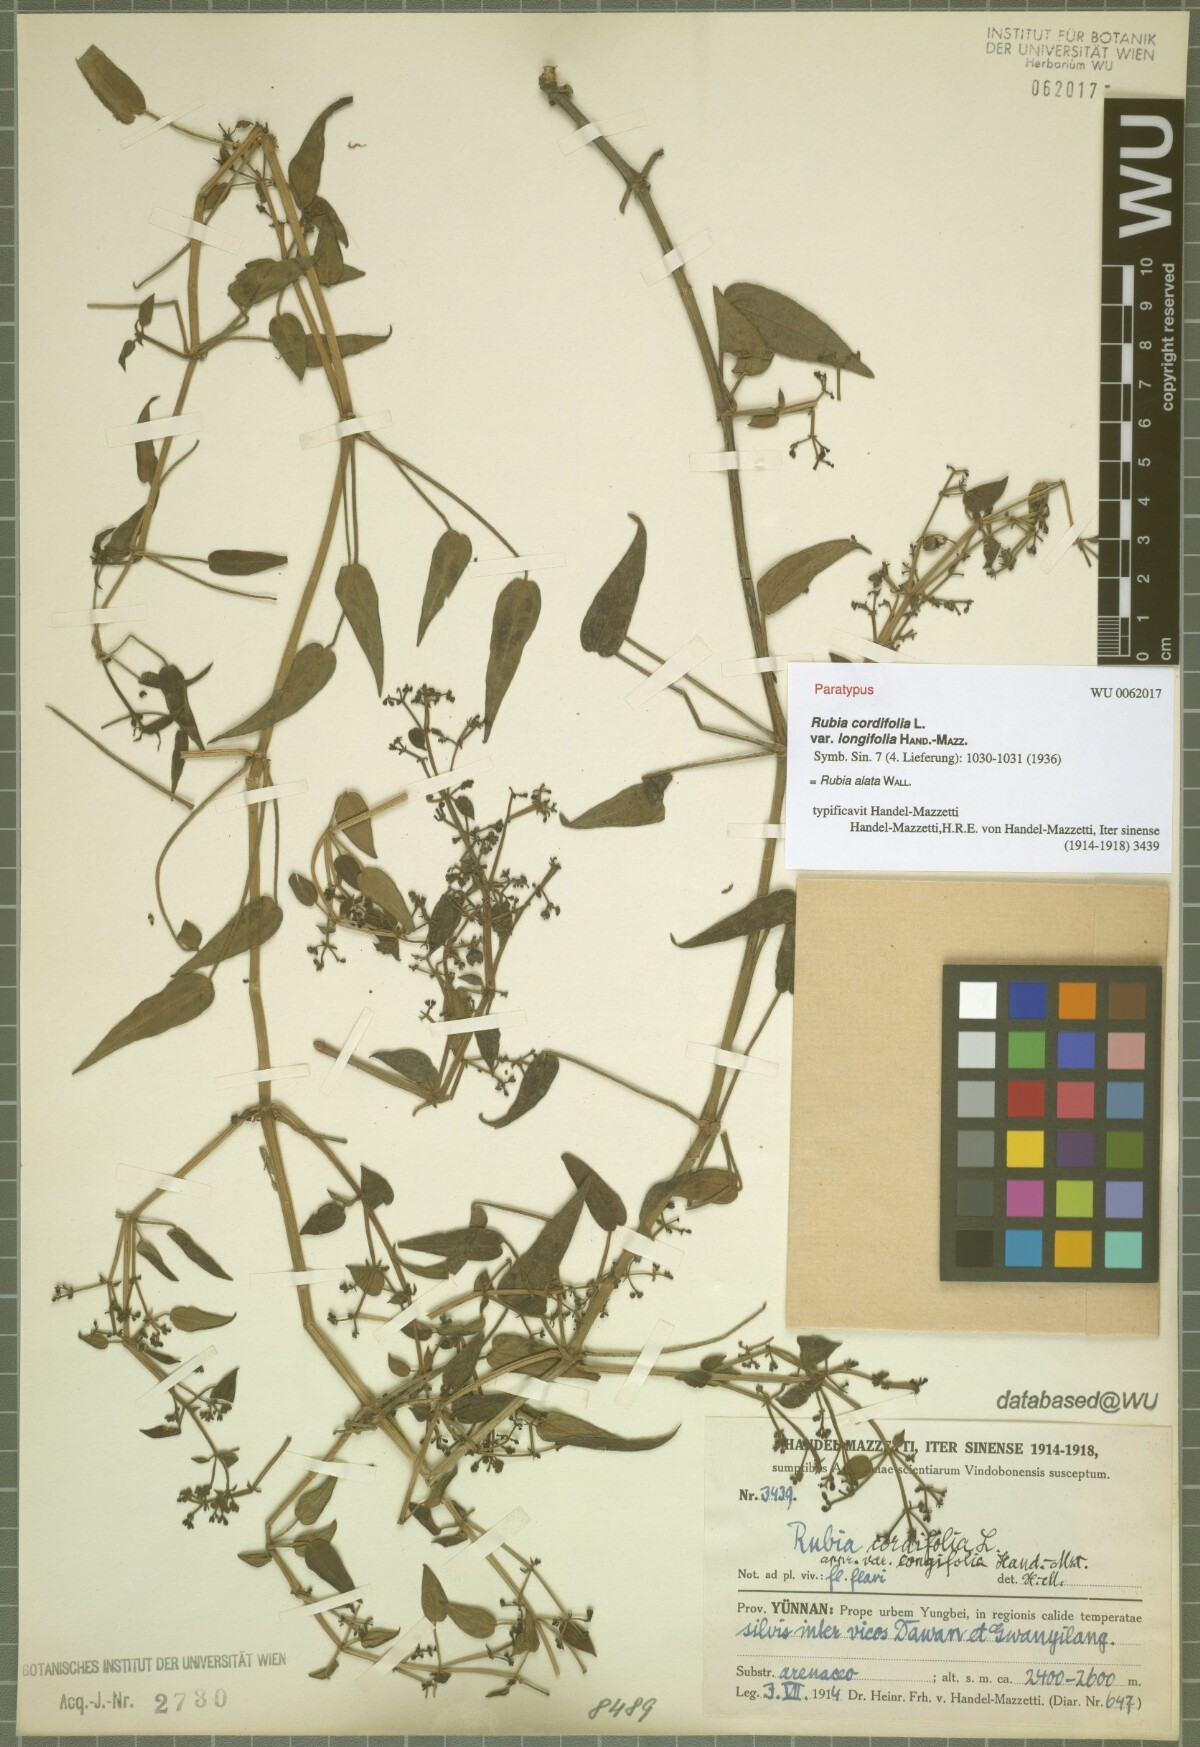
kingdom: Plantae
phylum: Tracheophyta
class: Magnoliopsida
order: Gentianales
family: Rubiaceae
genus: Rubia
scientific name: Rubia alata
